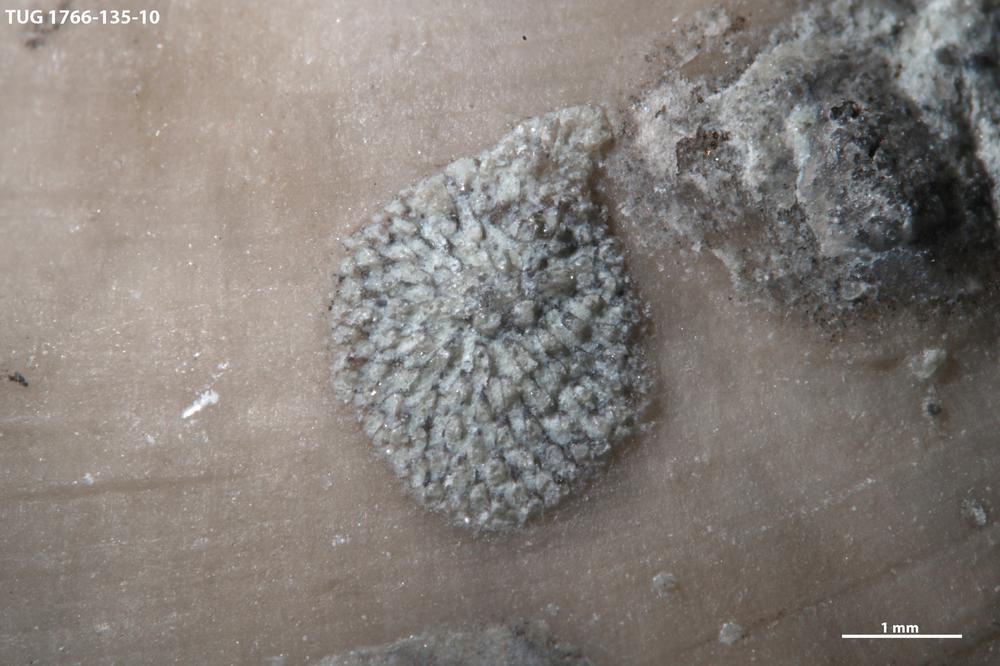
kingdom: Animalia
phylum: Bryozoa
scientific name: Bryozoa
